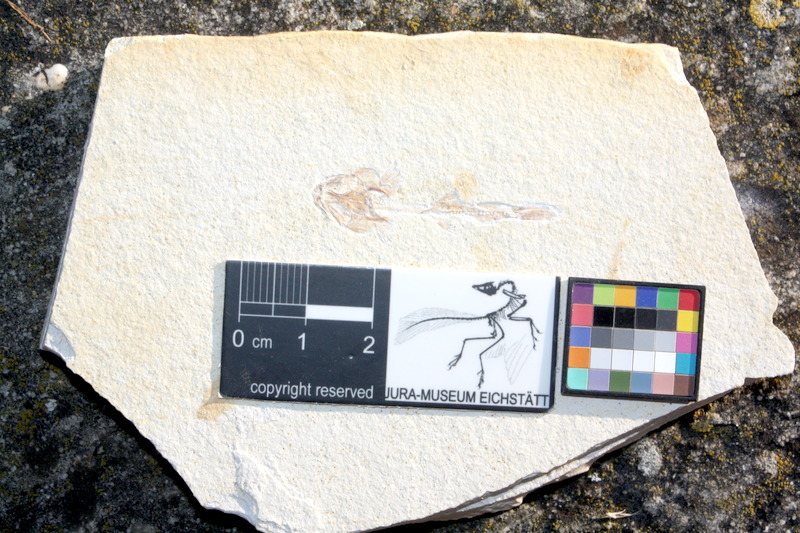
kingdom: Animalia
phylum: Chordata
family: Ophiopsiellidae
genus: Ophiopsiella
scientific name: Ophiopsiella attenuata
